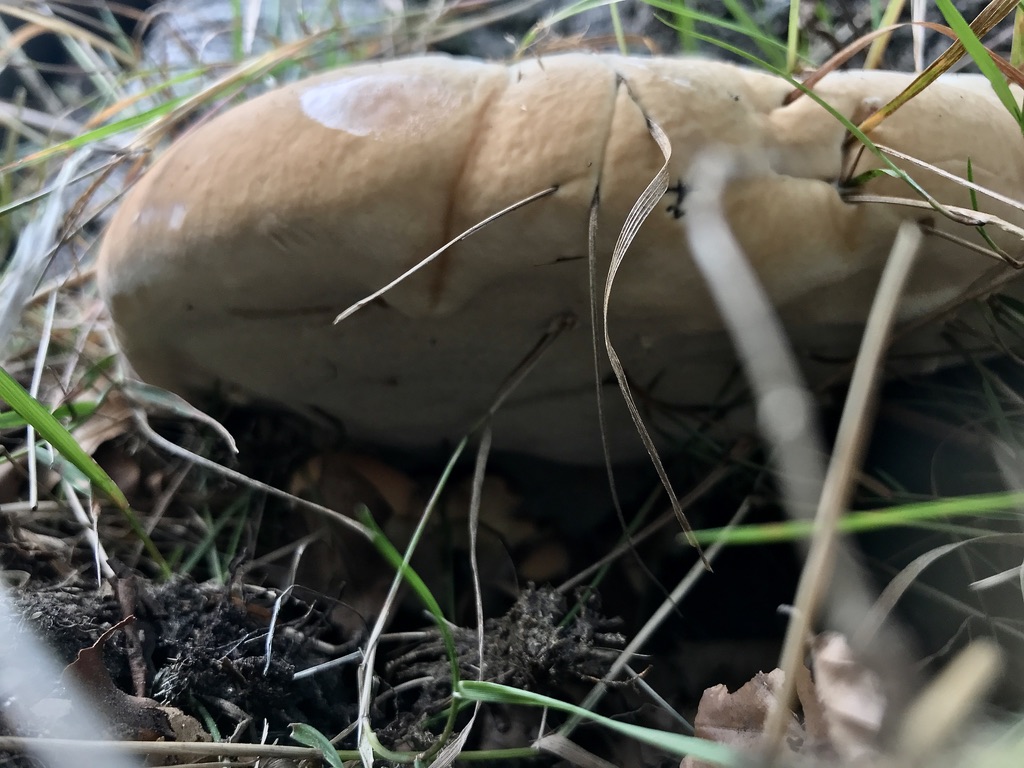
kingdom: Fungi
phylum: Basidiomycota
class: Agaricomycetes
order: Polyporales
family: Polyporaceae
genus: Ganoderma
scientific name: Ganoderma resinaceum
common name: gyldenbrun lakporesvamp
